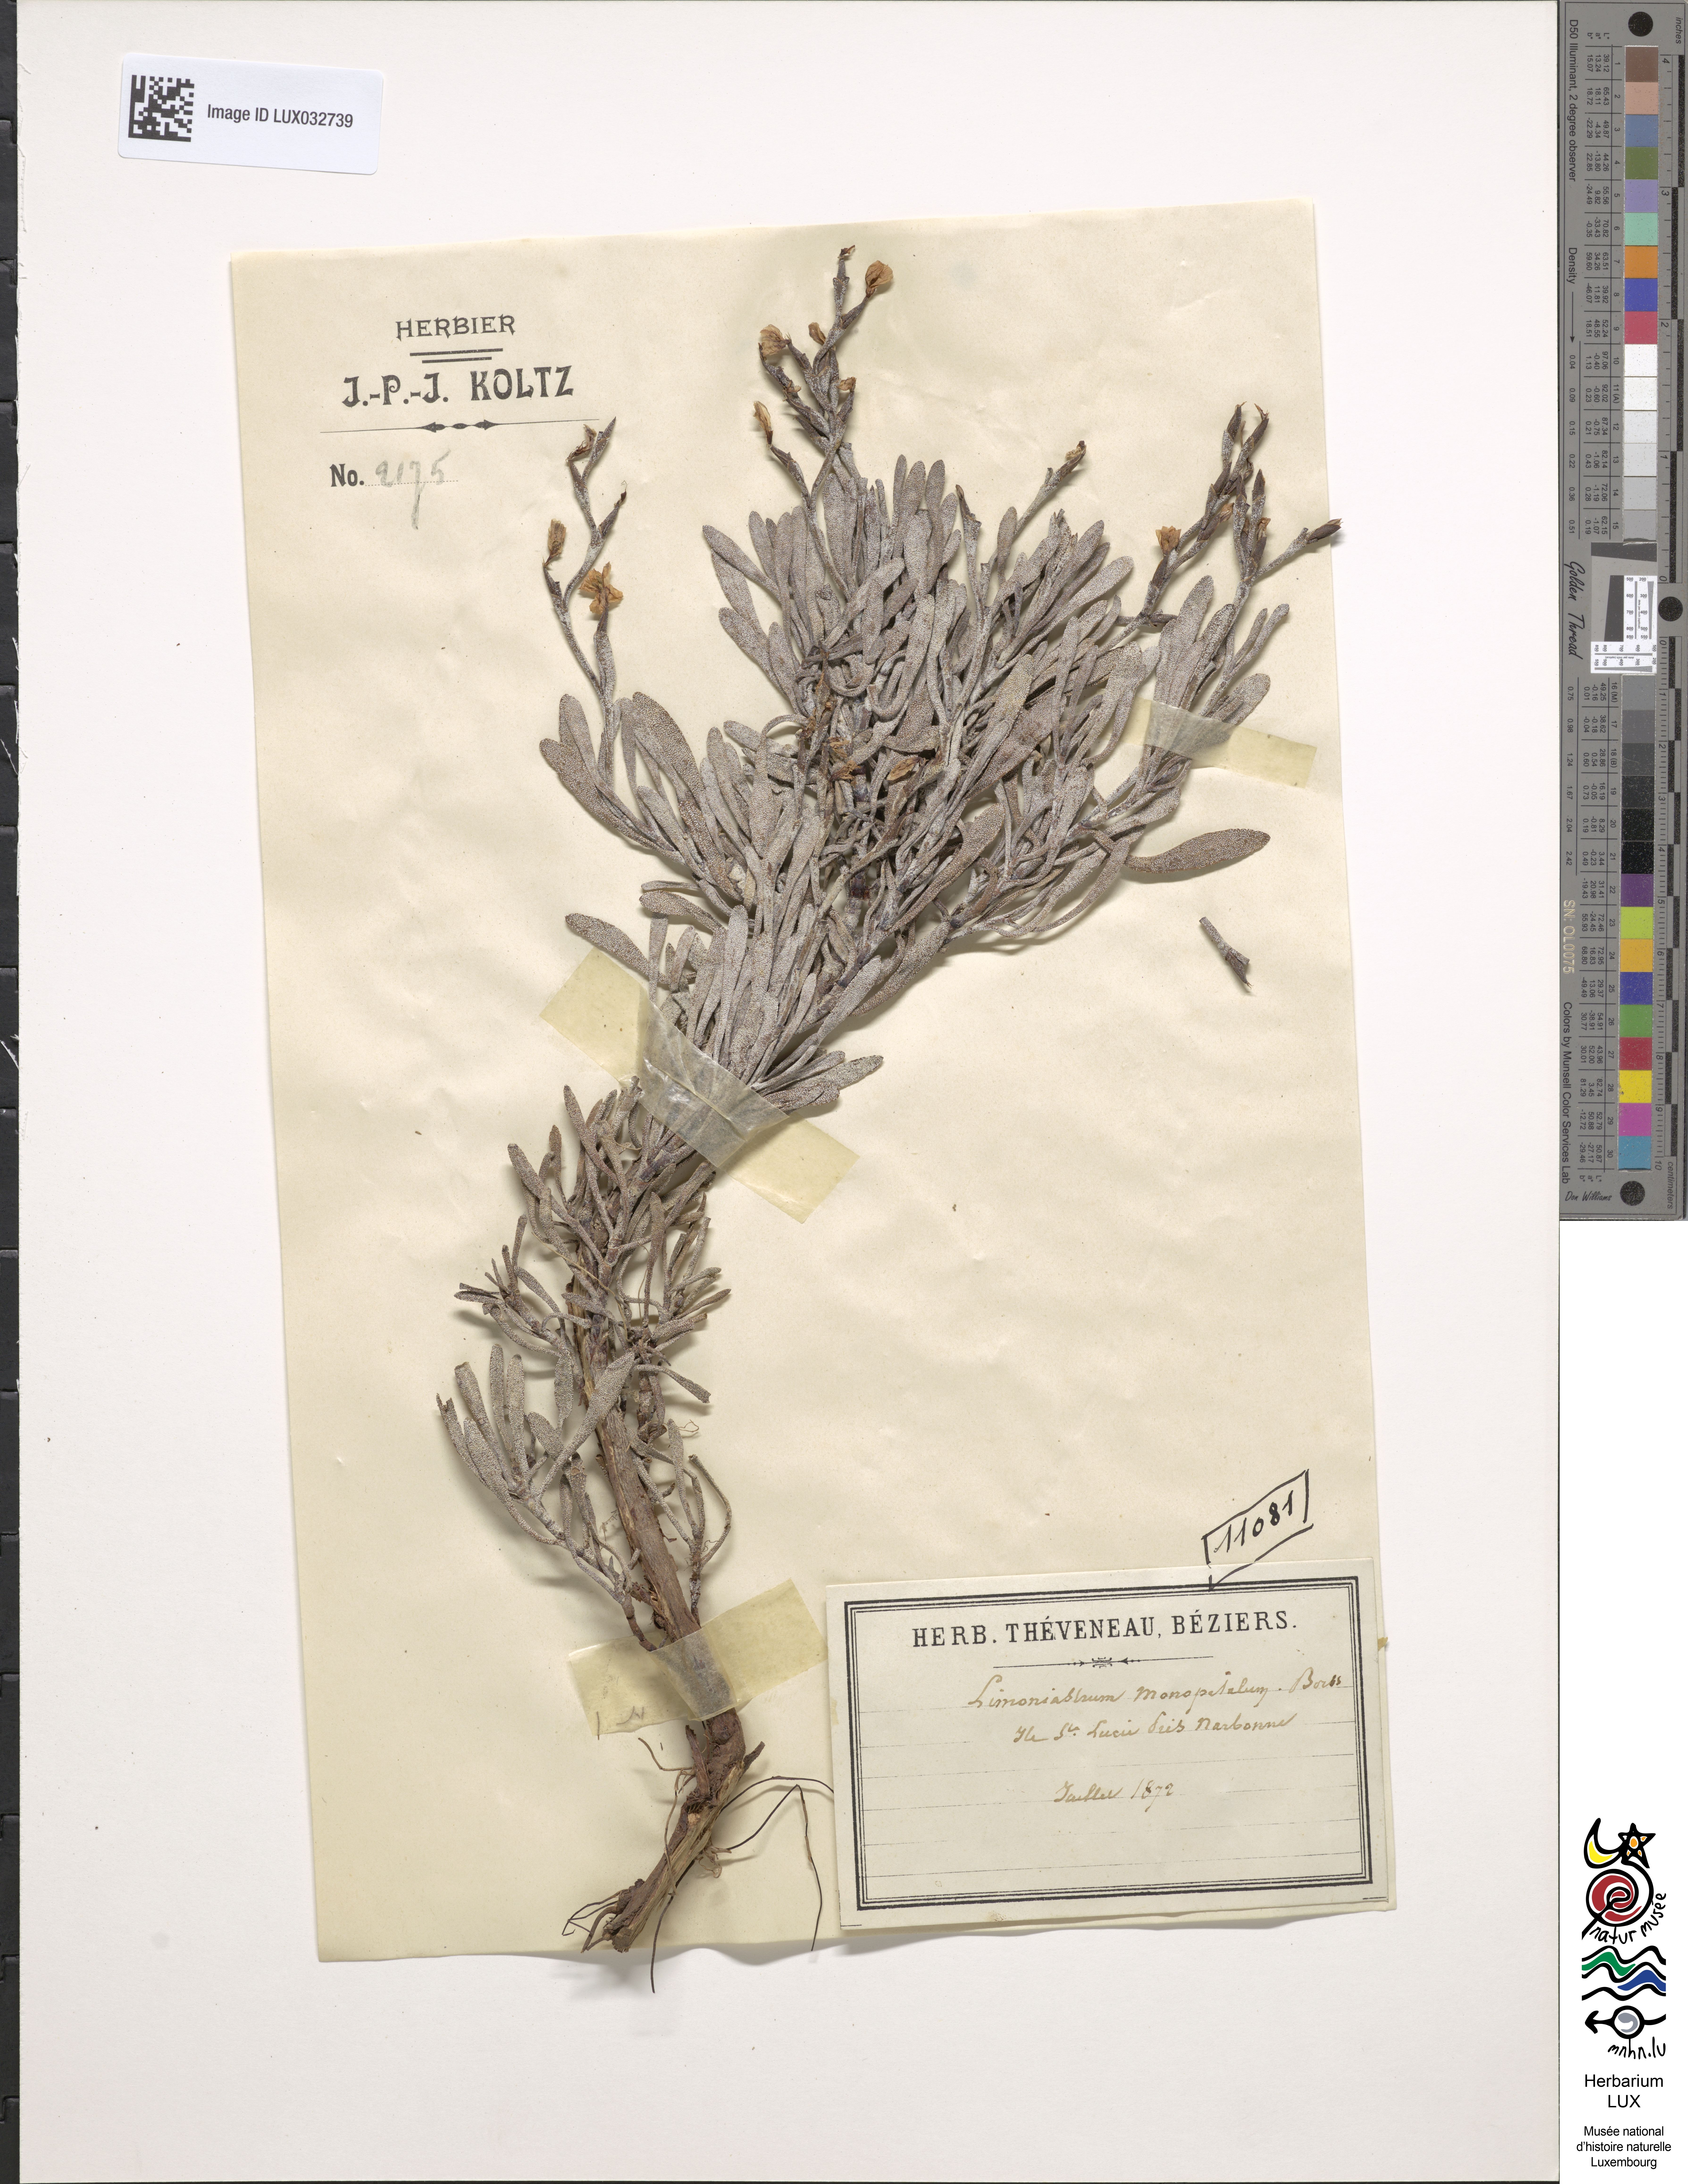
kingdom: Plantae
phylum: Tracheophyta
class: Magnoliopsida
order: Caryophyllales
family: Plumbaginaceae
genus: Limoniastrum
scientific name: Limoniastrum monopetalum
